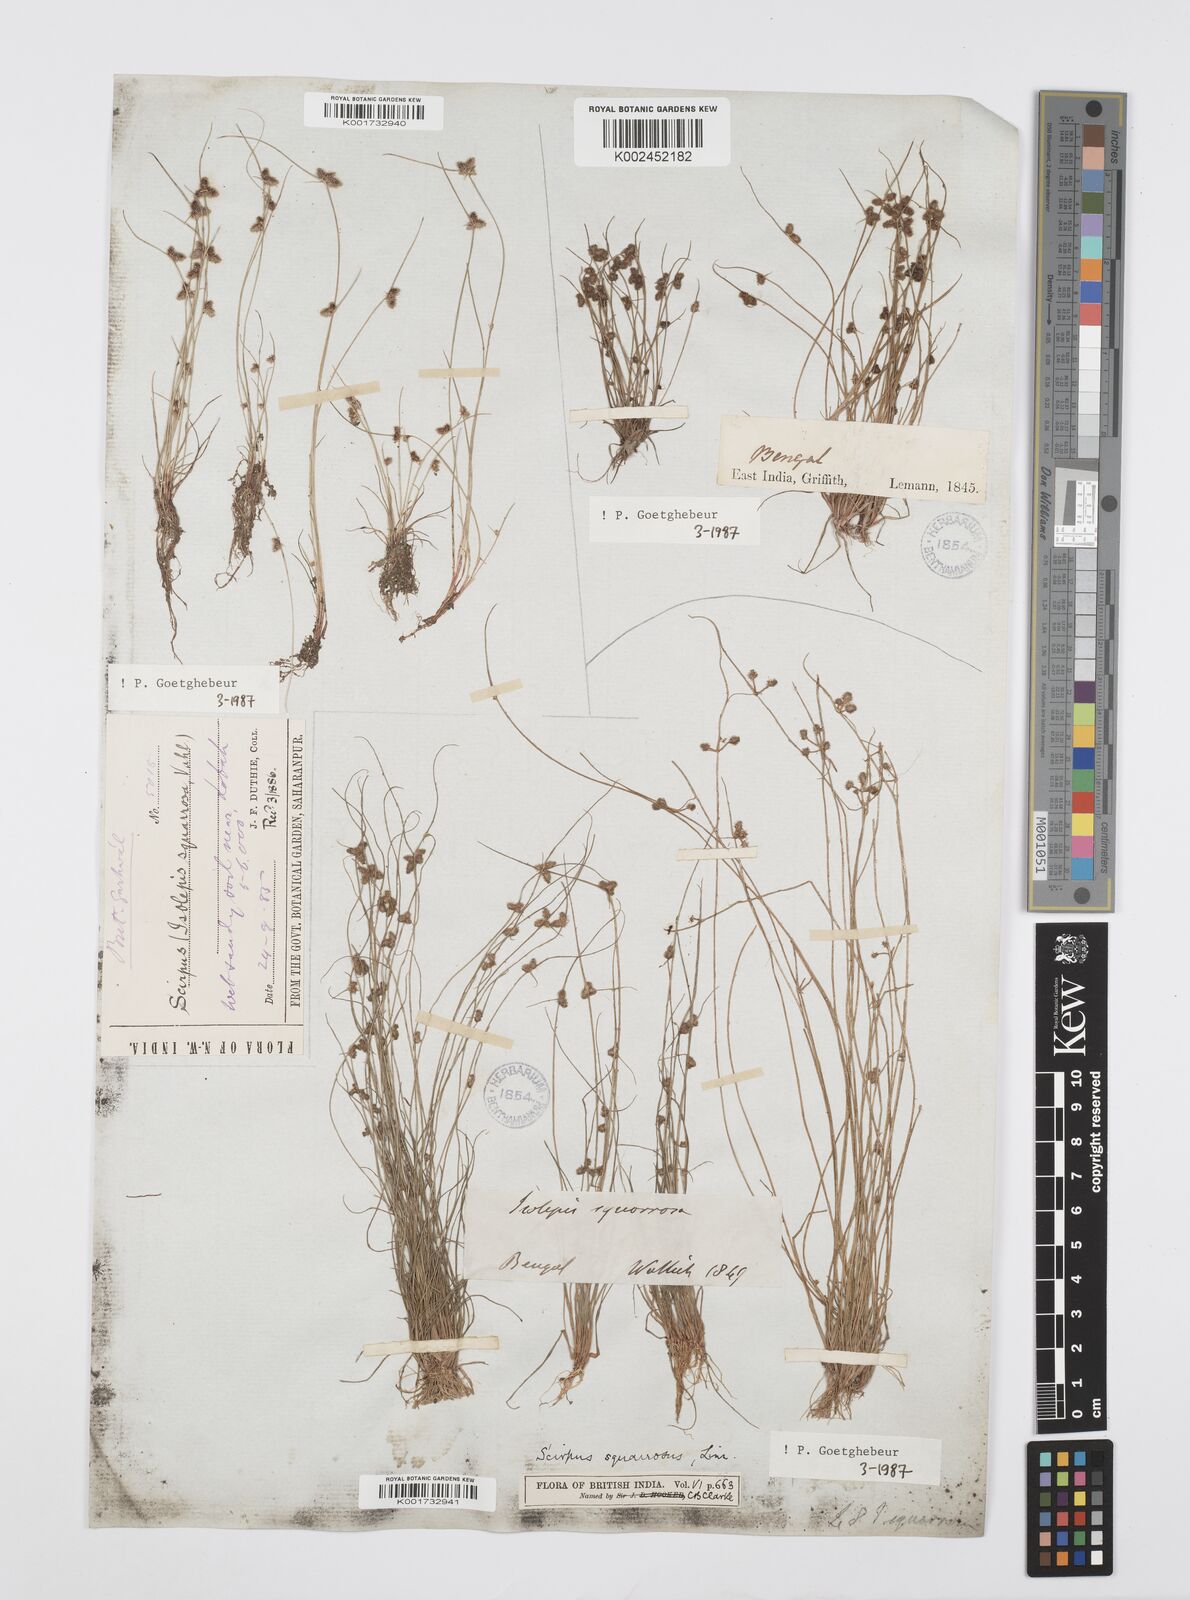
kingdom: Plantae
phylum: Tracheophyta
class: Liliopsida
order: Poales
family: Cyperaceae
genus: Cyperus
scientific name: Cyperus squarrosus
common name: Awned cyperus
